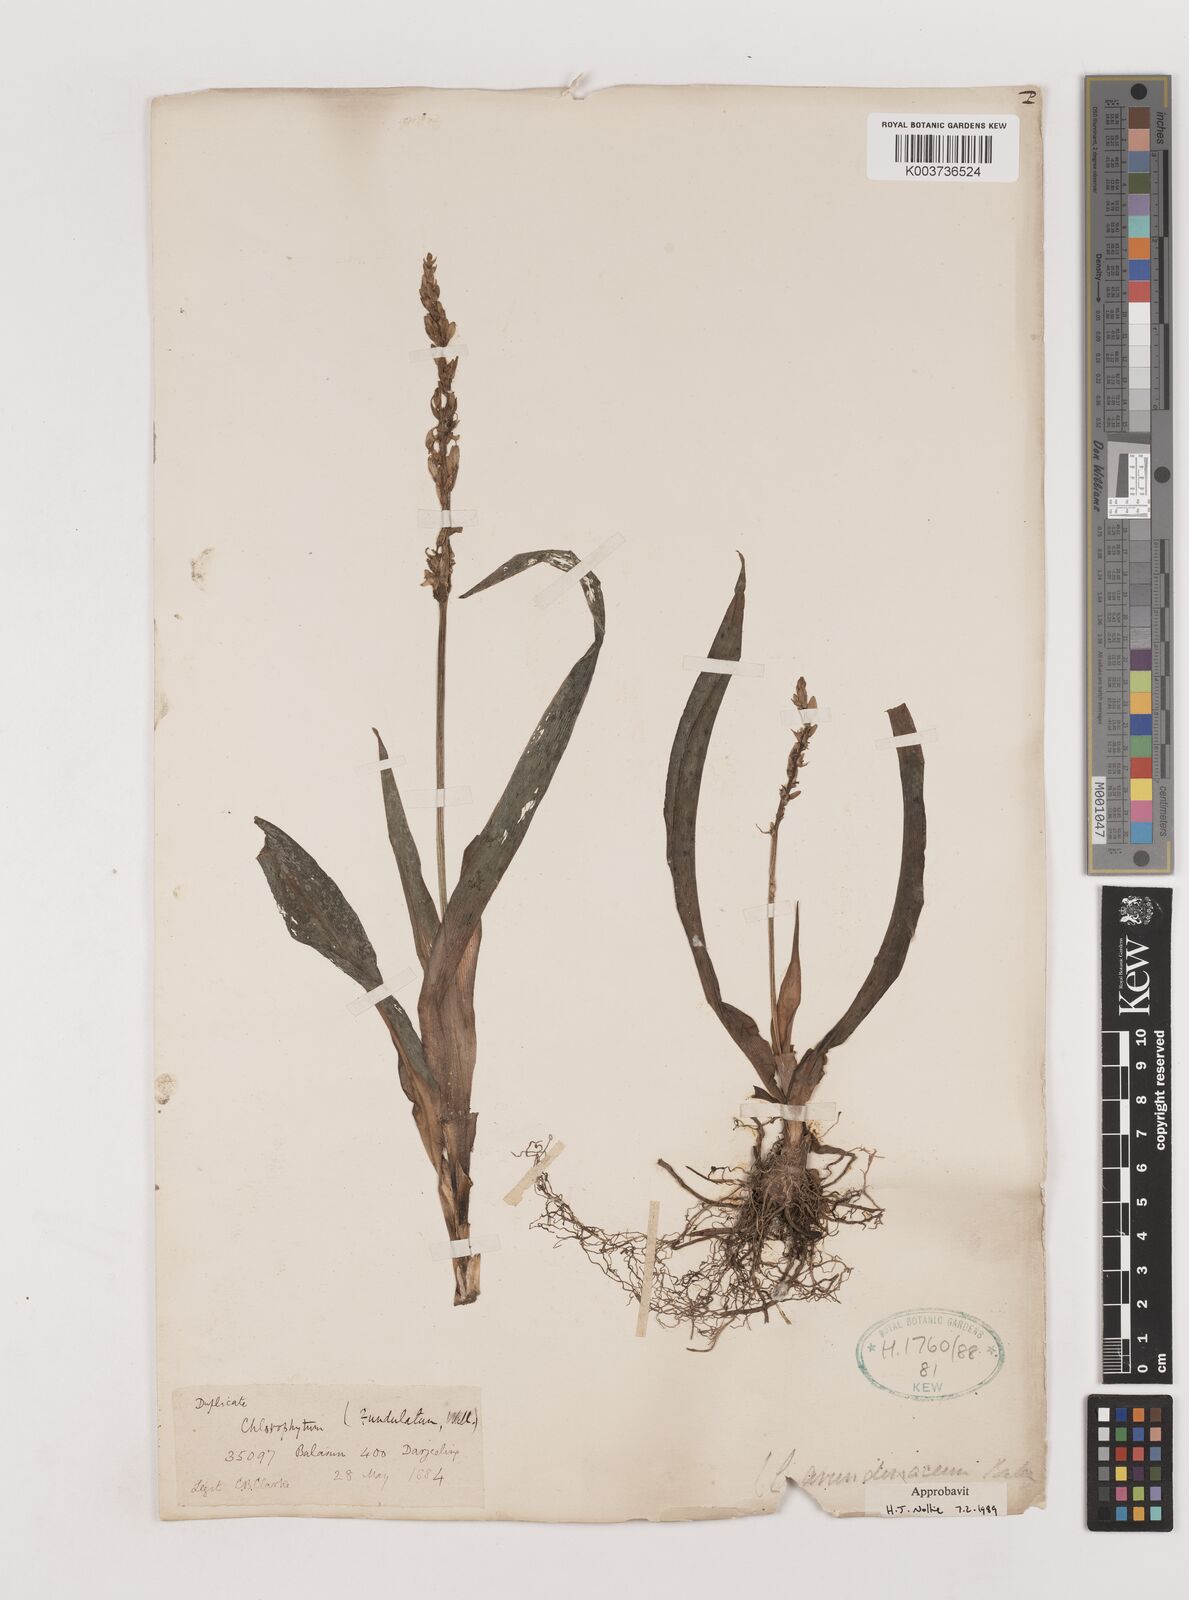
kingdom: Plantae
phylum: Tracheophyta
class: Liliopsida
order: Asparagales
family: Asparagaceae
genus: Chlorophytum
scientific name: Chlorophytum arundinaceum
